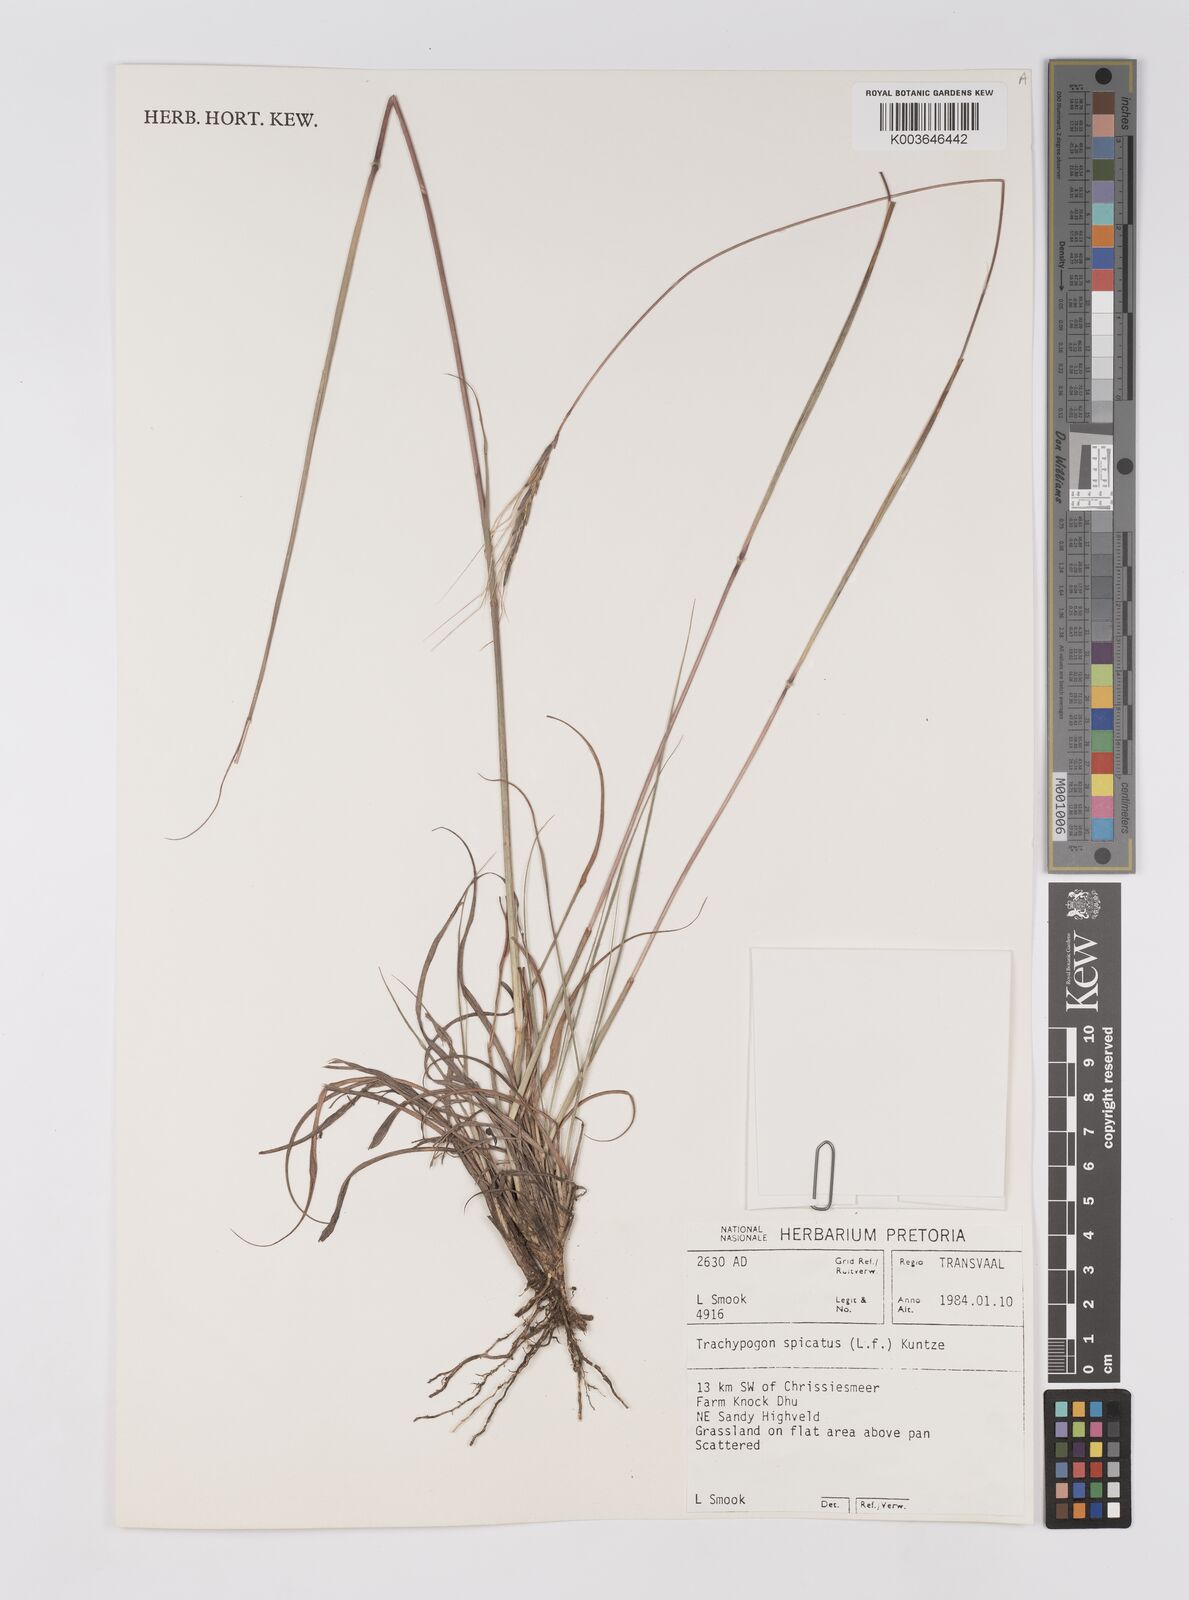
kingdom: Plantae
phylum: Tracheophyta
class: Liliopsida
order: Poales
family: Poaceae
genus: Trachypogon
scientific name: Trachypogon spicatus
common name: Crinkle-awn
